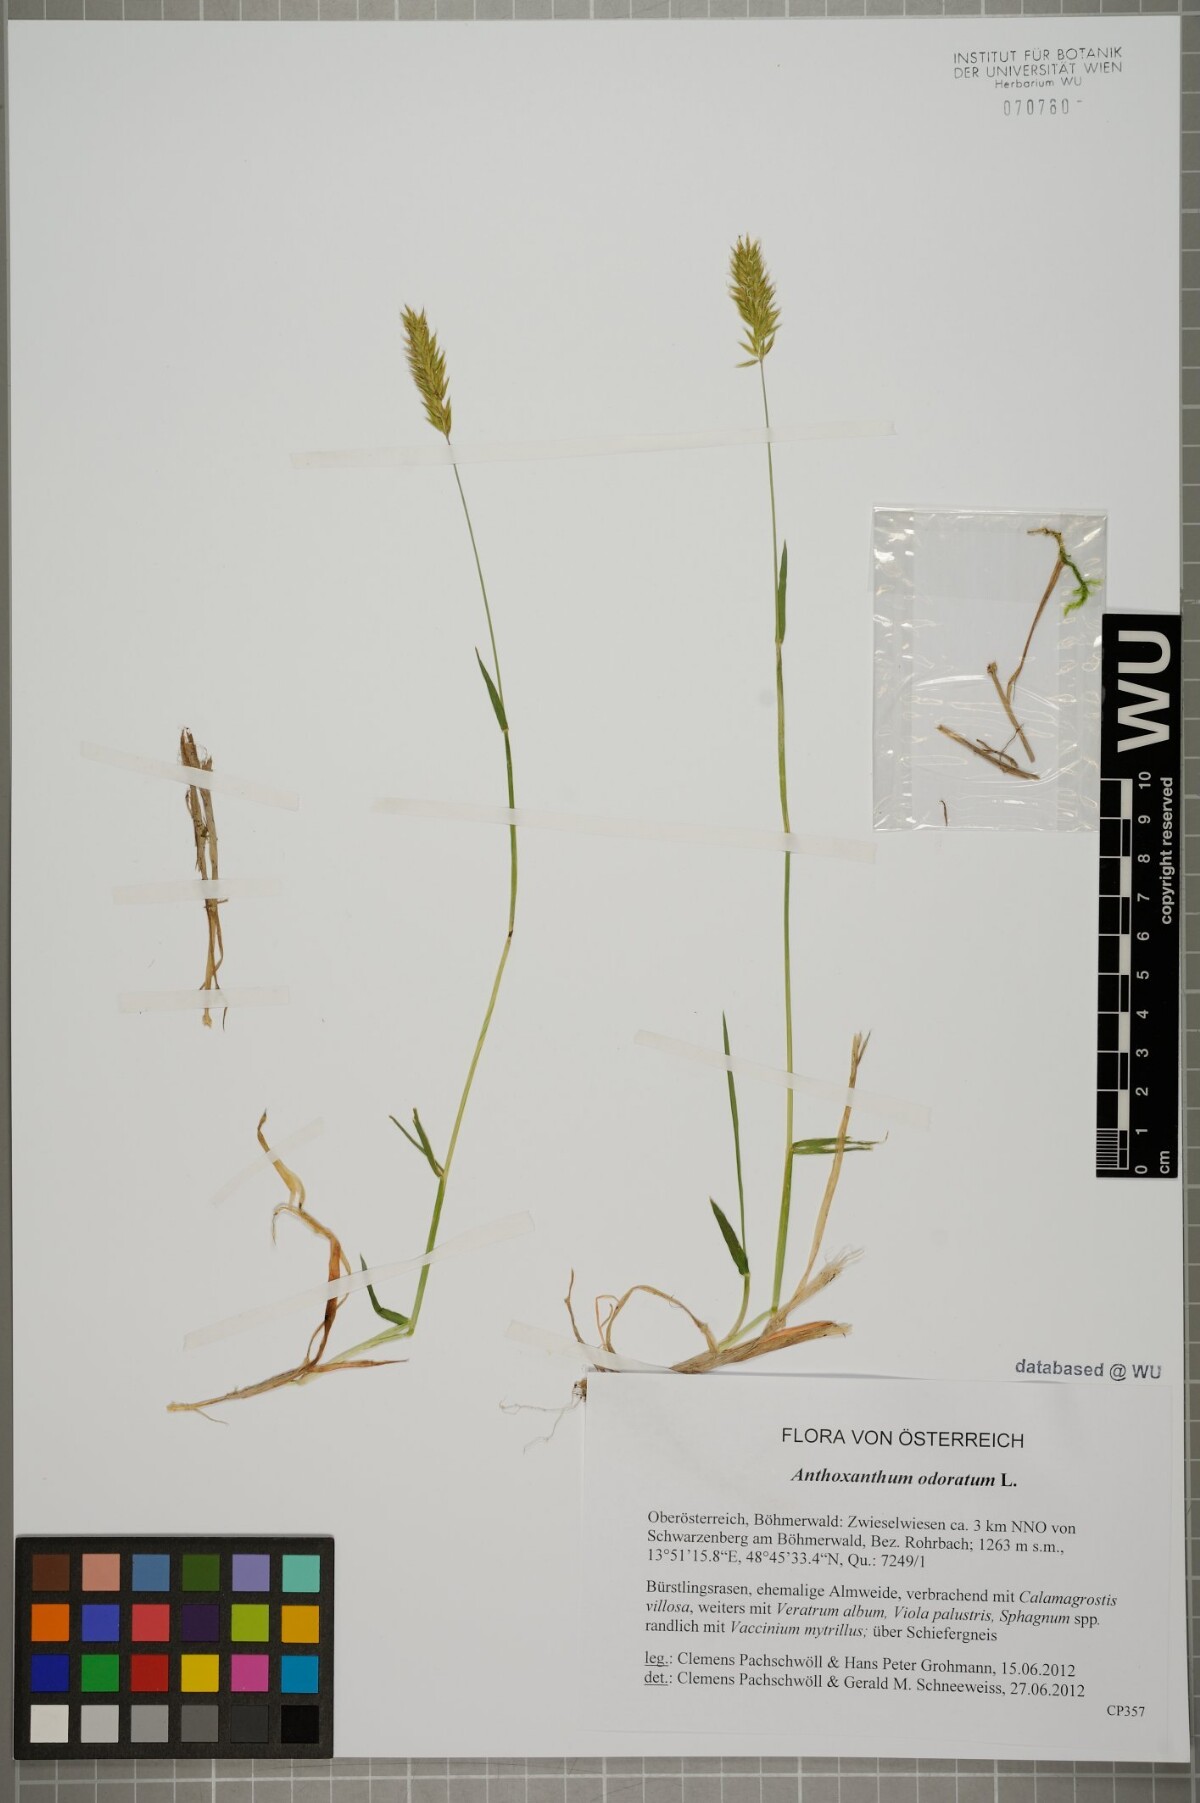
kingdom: Plantae
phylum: Tracheophyta
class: Liliopsida
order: Poales
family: Poaceae
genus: Anthoxanthum
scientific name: Anthoxanthum odoratum
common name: Sweet vernalgrass
